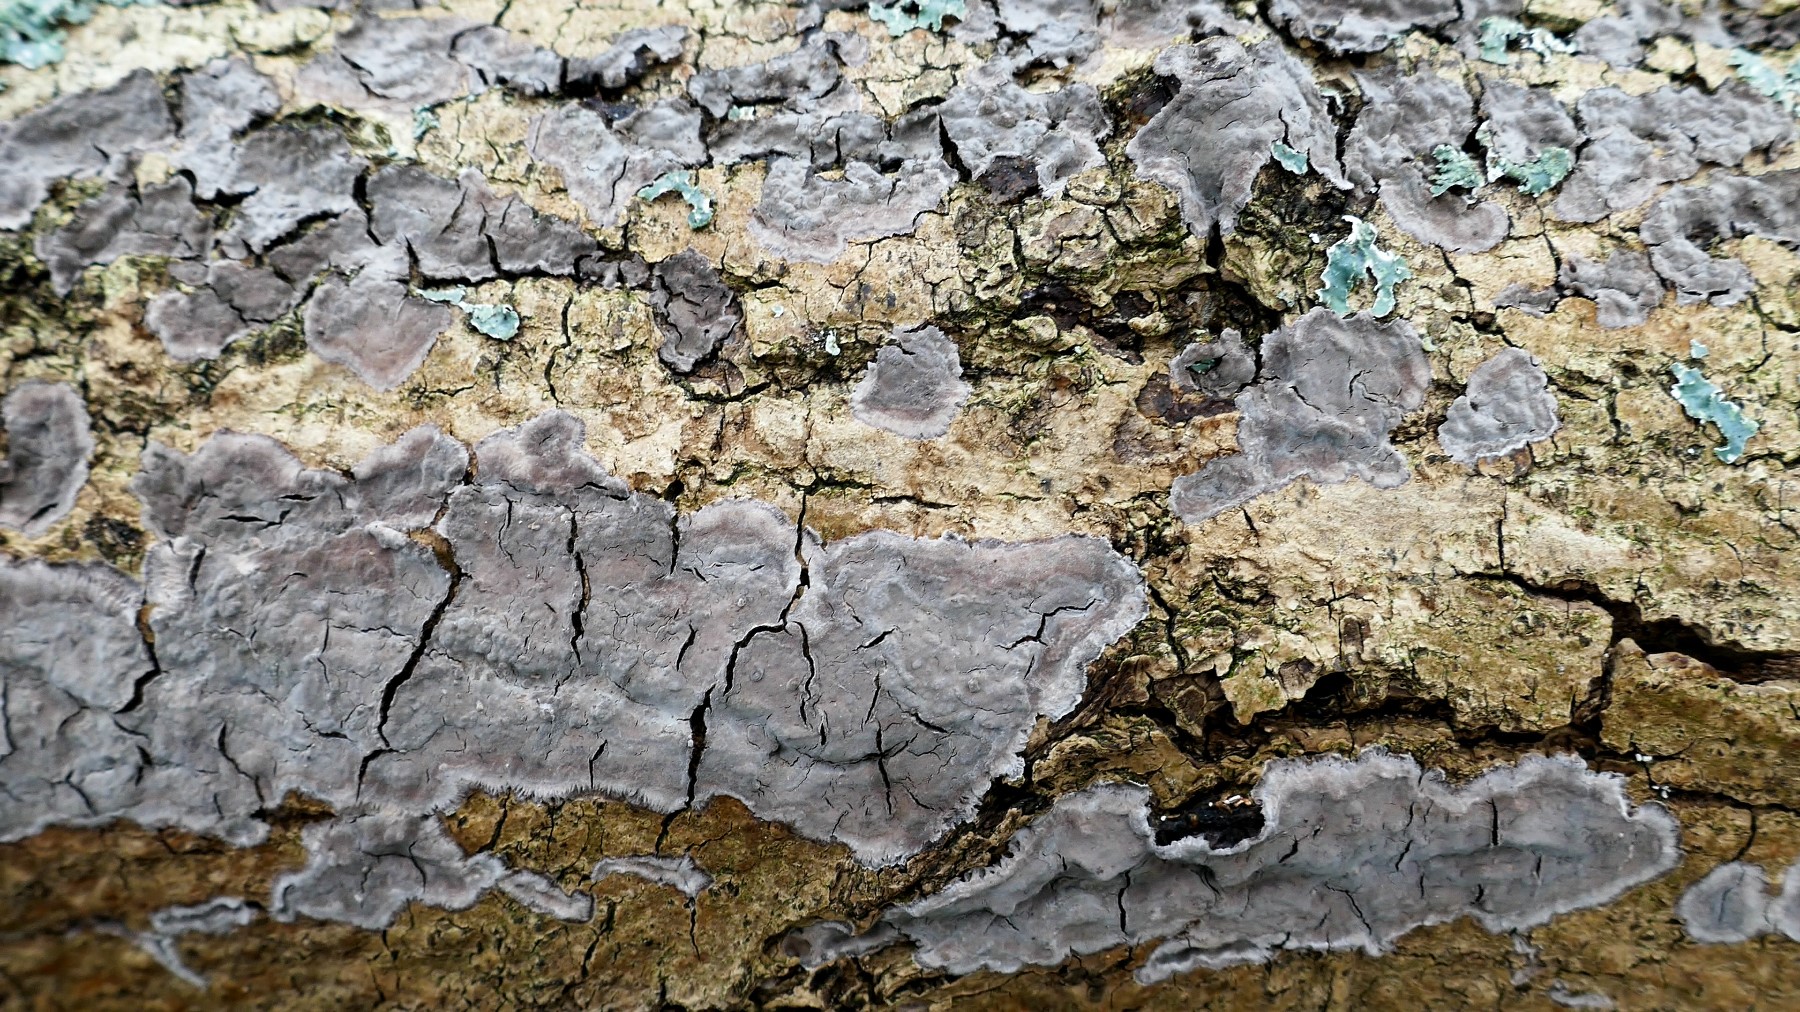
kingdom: Fungi
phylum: Basidiomycota
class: Agaricomycetes
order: Russulales
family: Peniophoraceae
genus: Peniophora
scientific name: Peniophora lycii
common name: grynet voksskind
